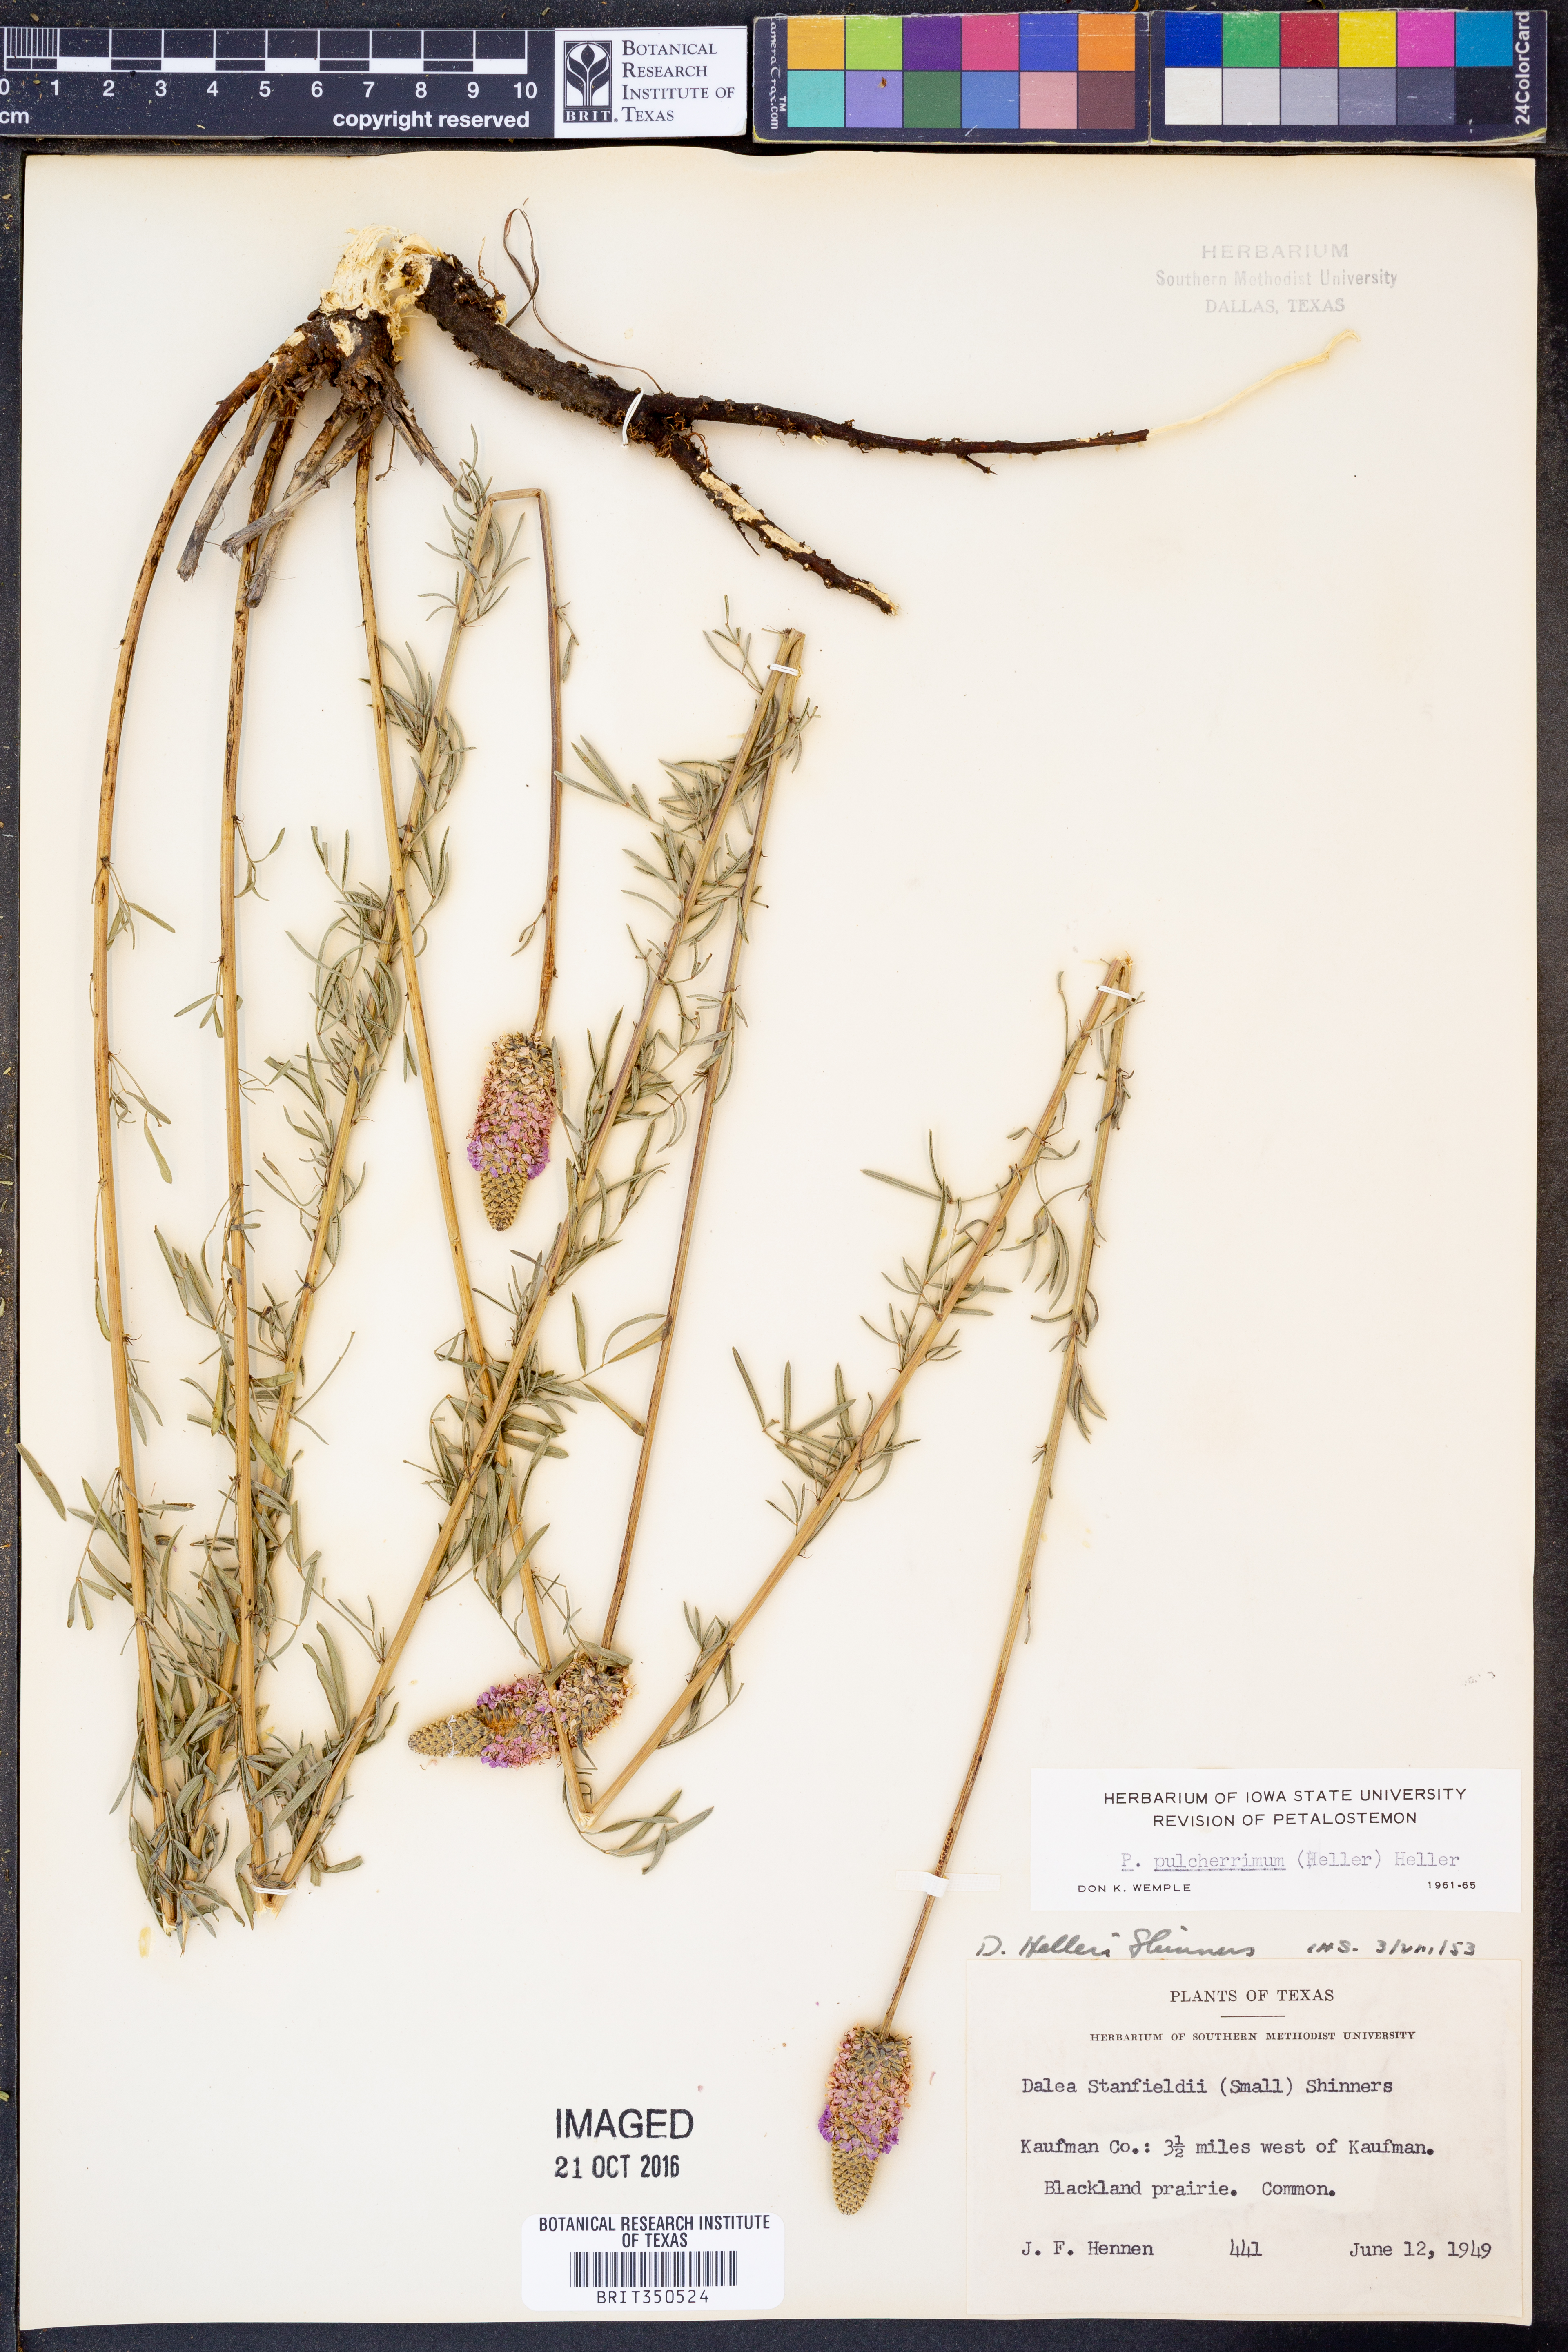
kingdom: Plantae
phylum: Tracheophyta
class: Magnoliopsida
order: Fabales
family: Fabaceae
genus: Dalea
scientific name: Dalea compacta
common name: Compact prairie-clover
